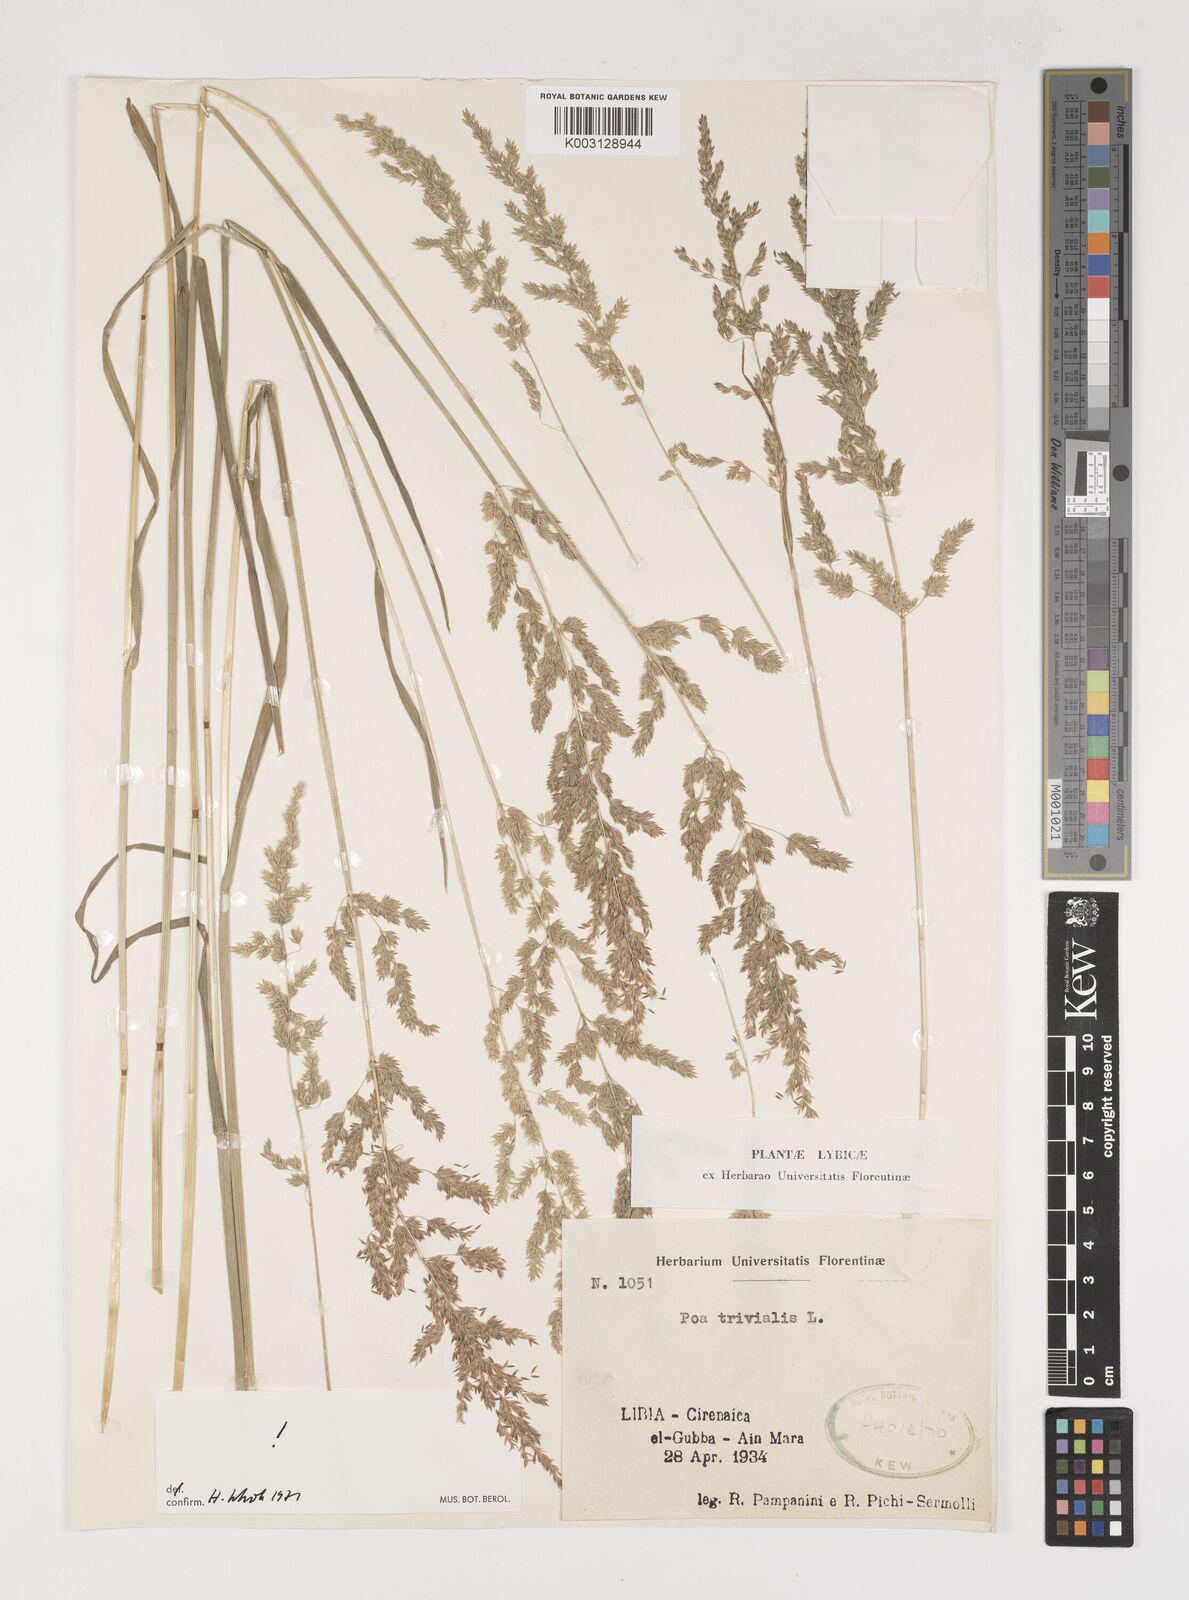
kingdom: Plantae
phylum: Tracheophyta
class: Liliopsida
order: Poales
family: Poaceae
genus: Poa
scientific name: Poa trivialis
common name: Rough bluegrass
